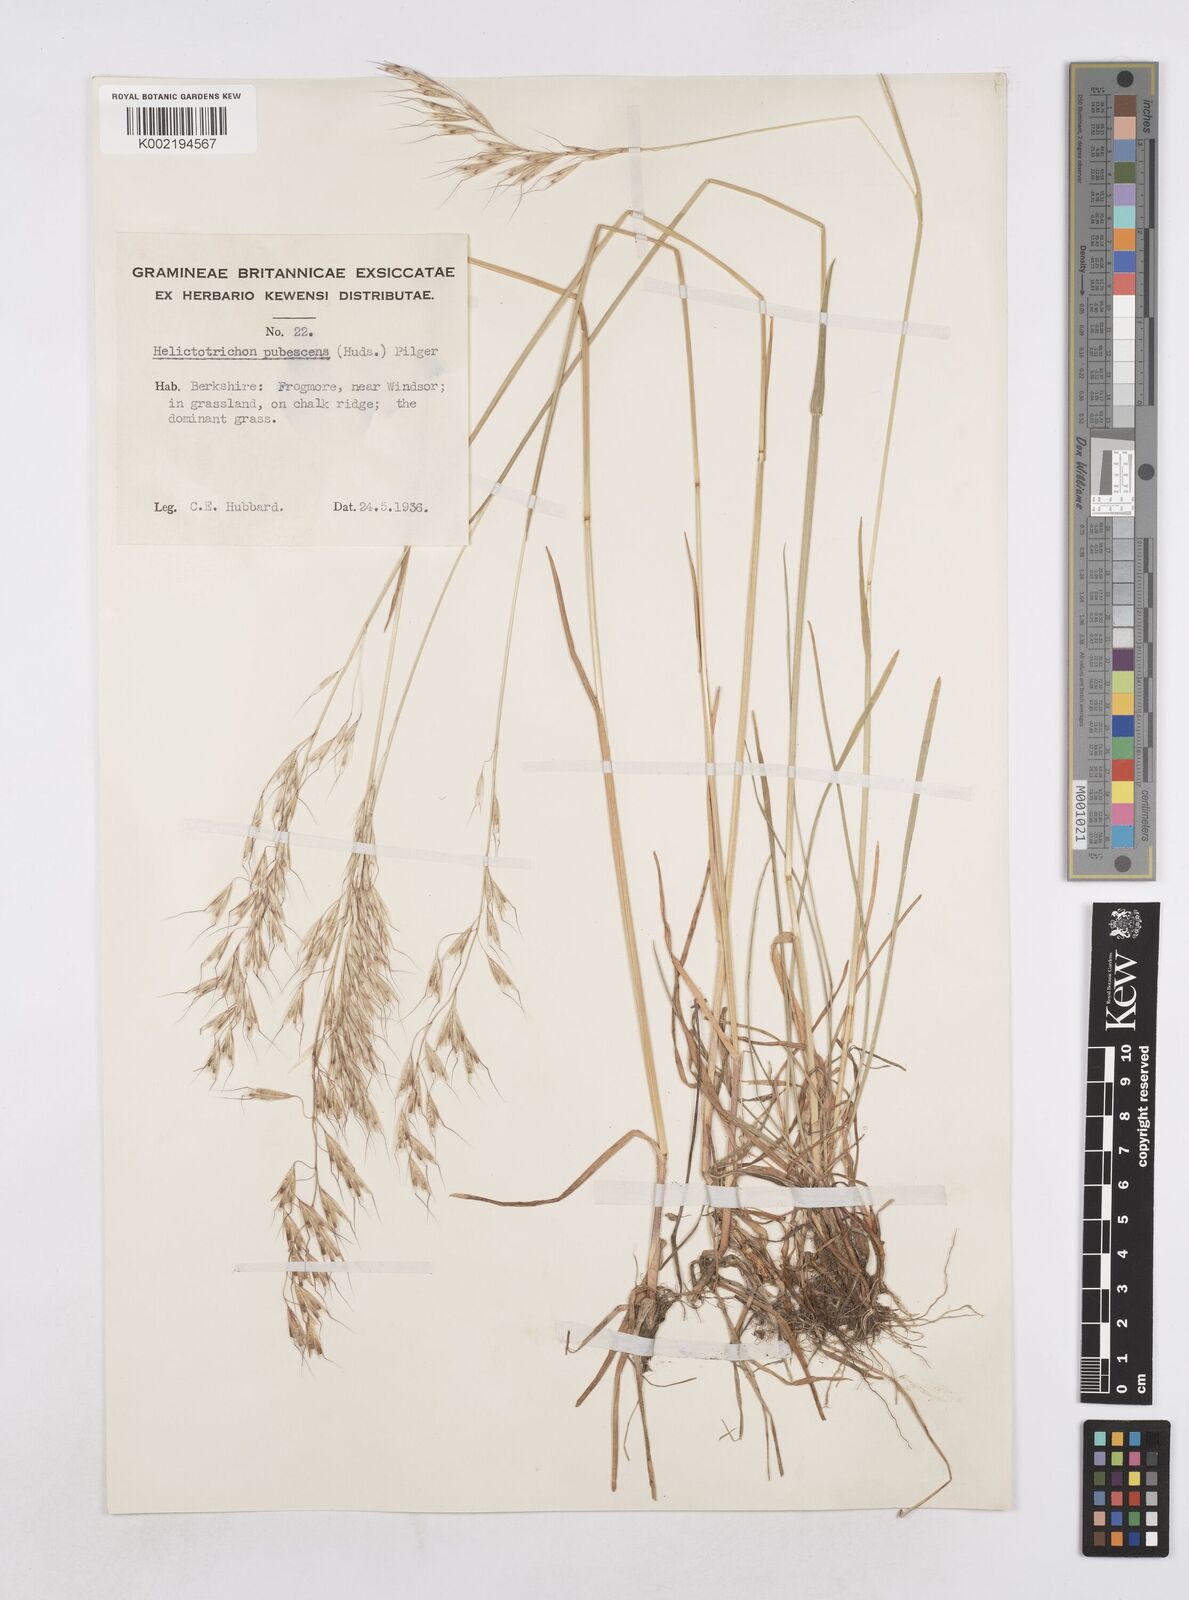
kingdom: Plantae
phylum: Tracheophyta
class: Liliopsida
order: Poales
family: Poaceae
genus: Avenula
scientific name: Avenula pubescens
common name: Downy alpine oatgrass
